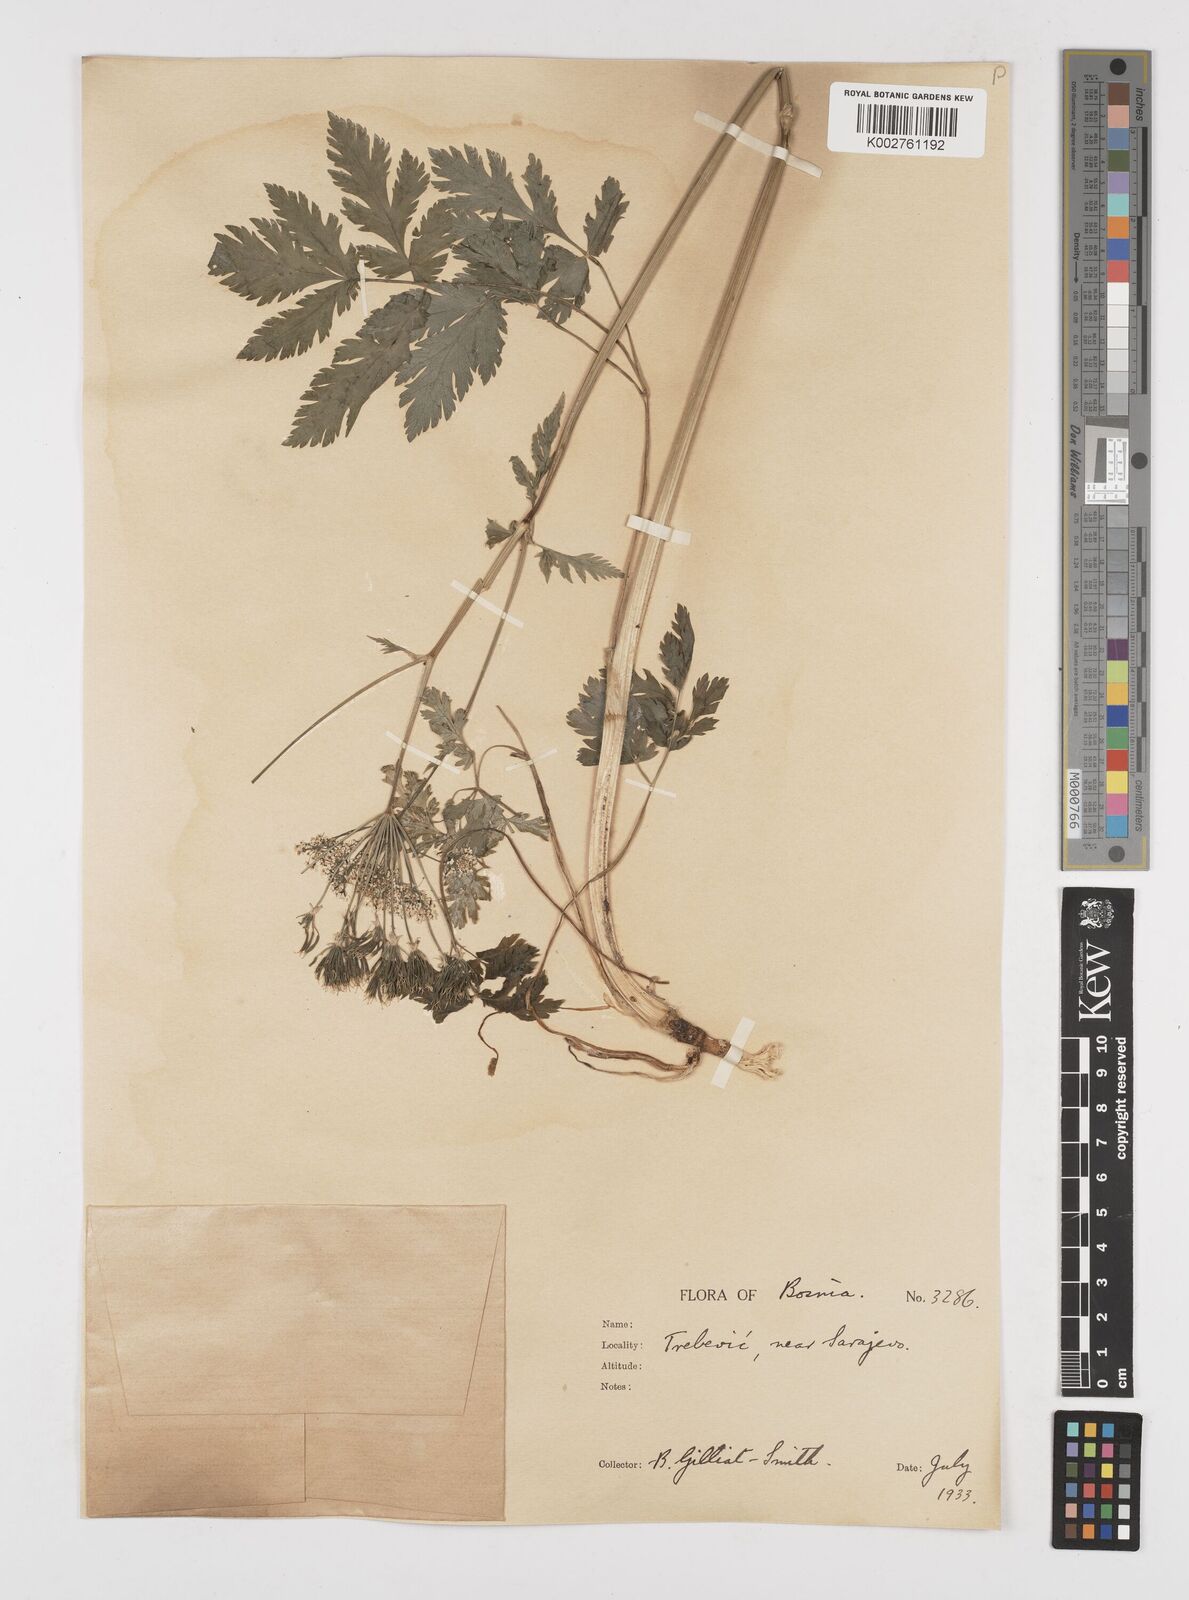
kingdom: Plantae
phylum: Tracheophyta
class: Magnoliopsida
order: Apiales
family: Apiaceae
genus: Chaerophyllum
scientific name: Chaerophyllum hirsutum
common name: Hairy chervil
